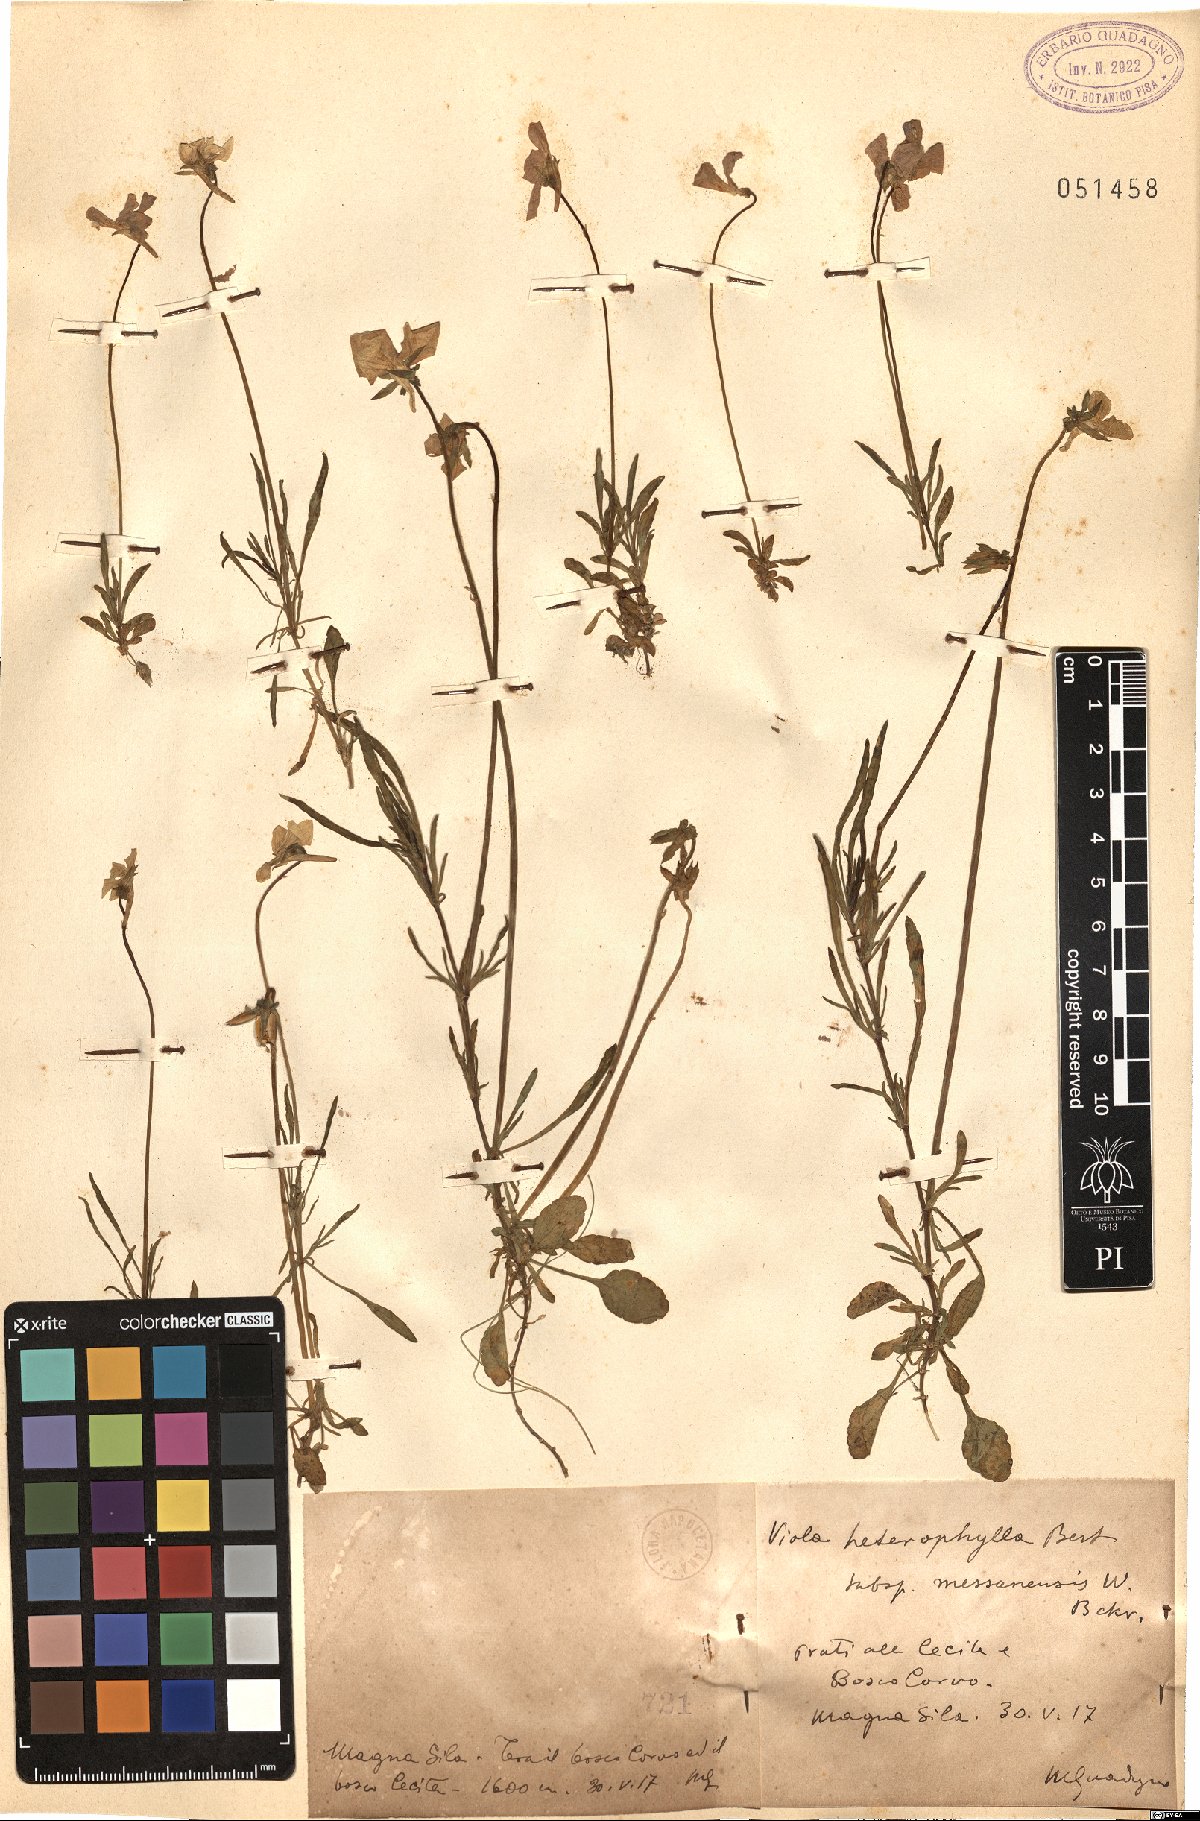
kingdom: Plantae
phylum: Tracheophyta
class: Magnoliopsida
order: Malpighiales
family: Violaceae
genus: Viola
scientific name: Viola aethnensis
